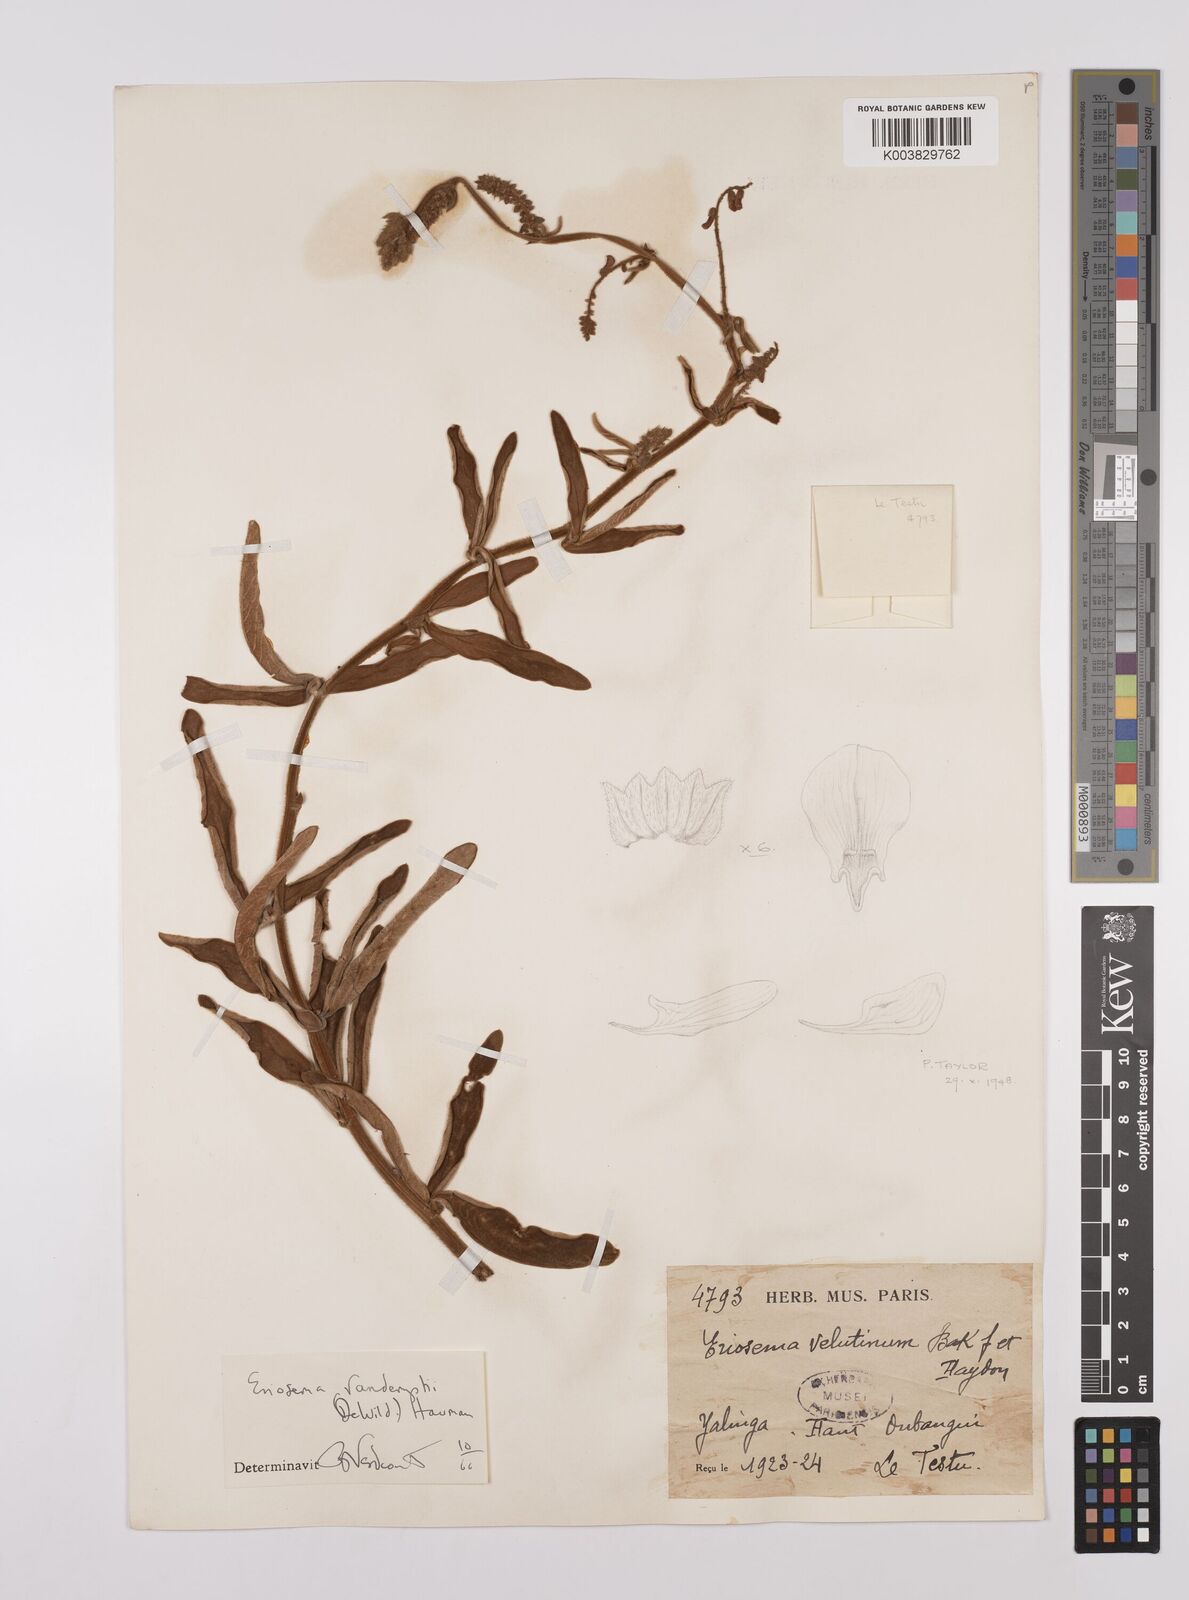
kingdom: Plantae
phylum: Tracheophyta
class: Magnoliopsida
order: Fabales
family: Fabaceae
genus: Eriosema
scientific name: Eriosema vanderystii
